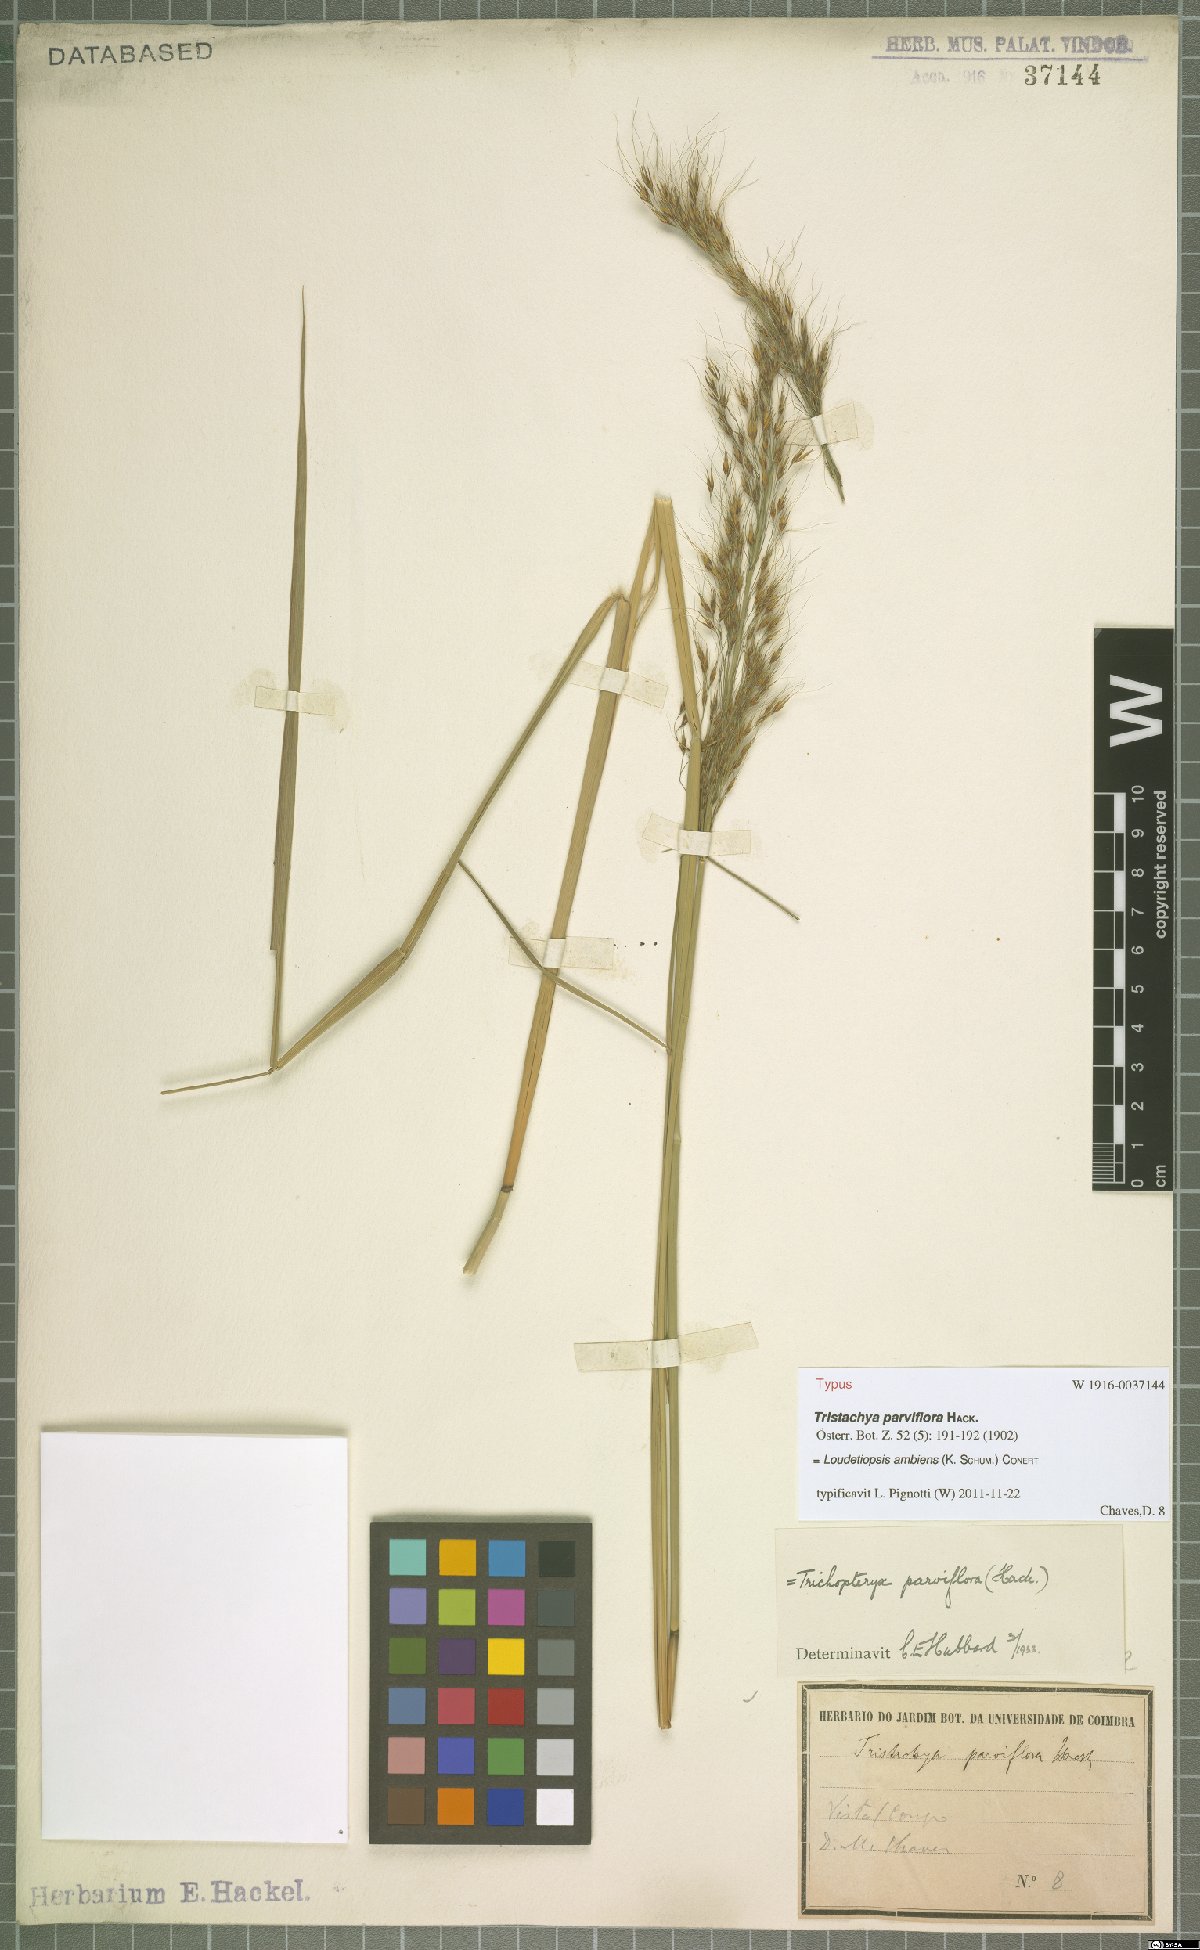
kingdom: Plantae
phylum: Tracheophyta
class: Liliopsida
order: Poales
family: Poaceae
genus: Loudetiopsis
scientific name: Loudetiopsis ambiens
